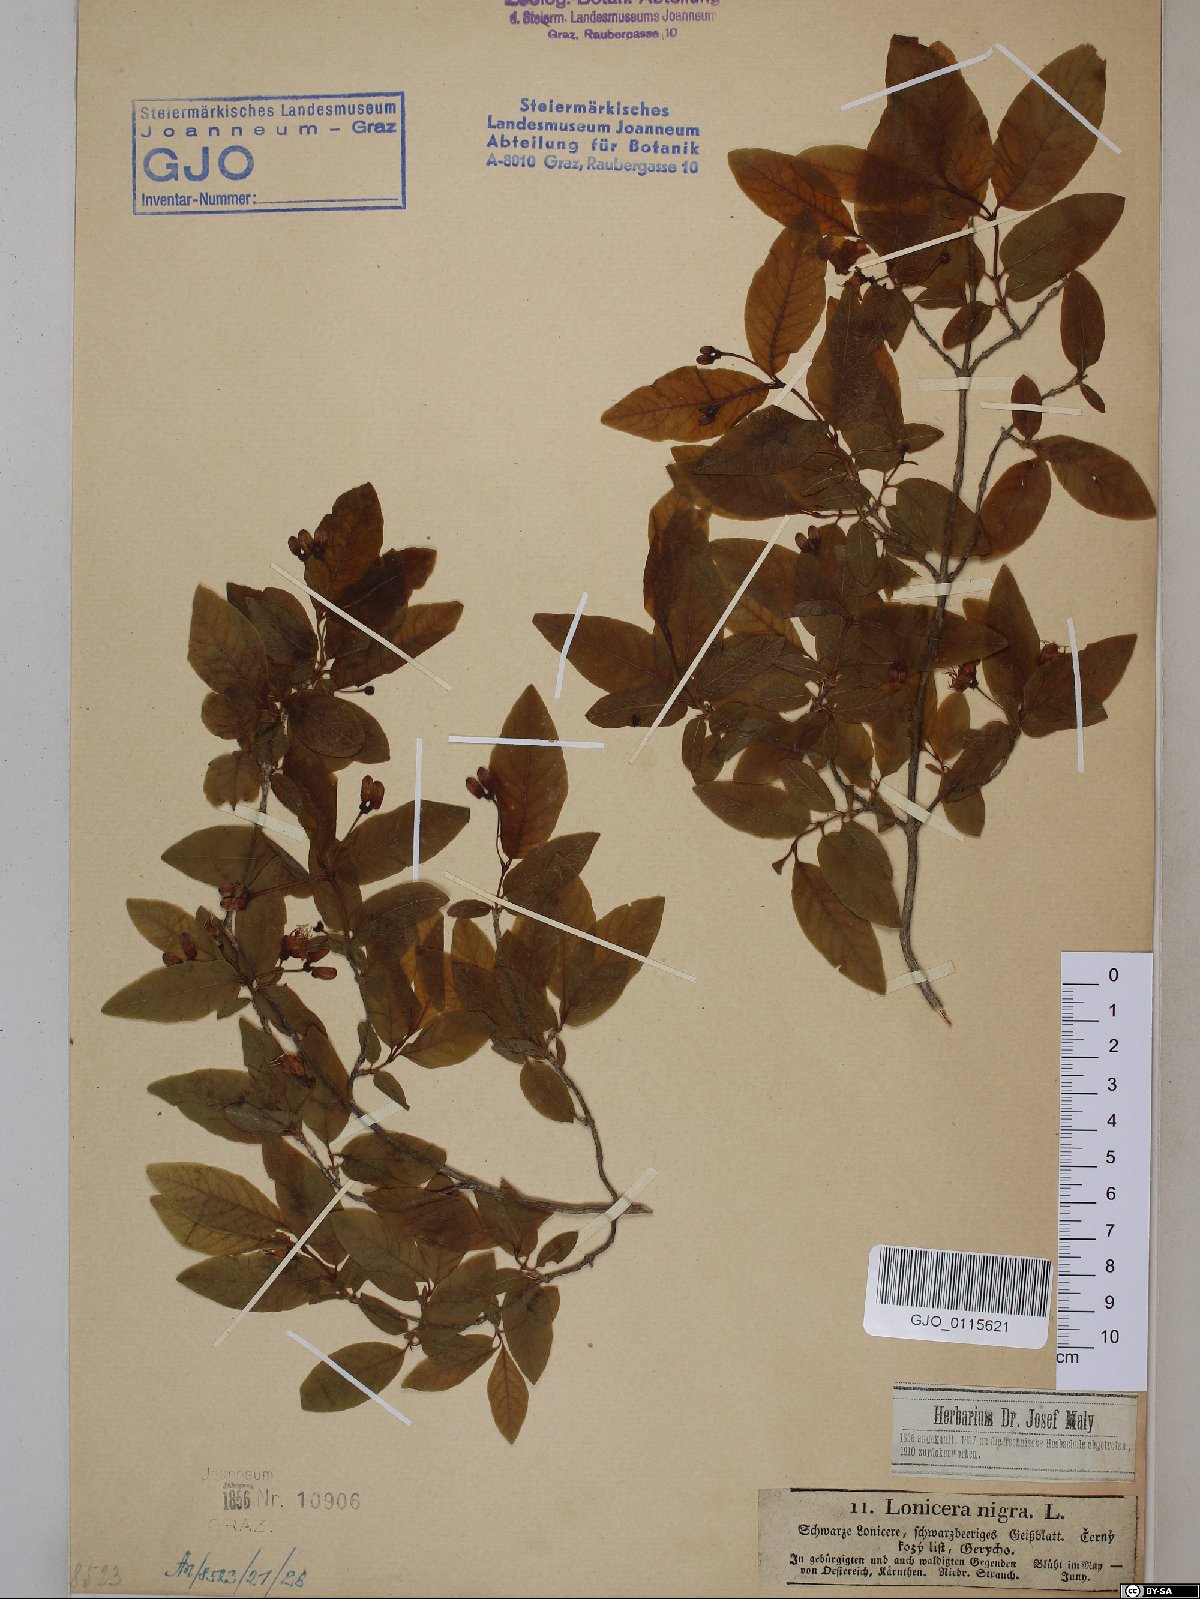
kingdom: Plantae
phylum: Tracheophyta
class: Magnoliopsida
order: Dipsacales
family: Caprifoliaceae
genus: Lonicera
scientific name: Lonicera nigra
